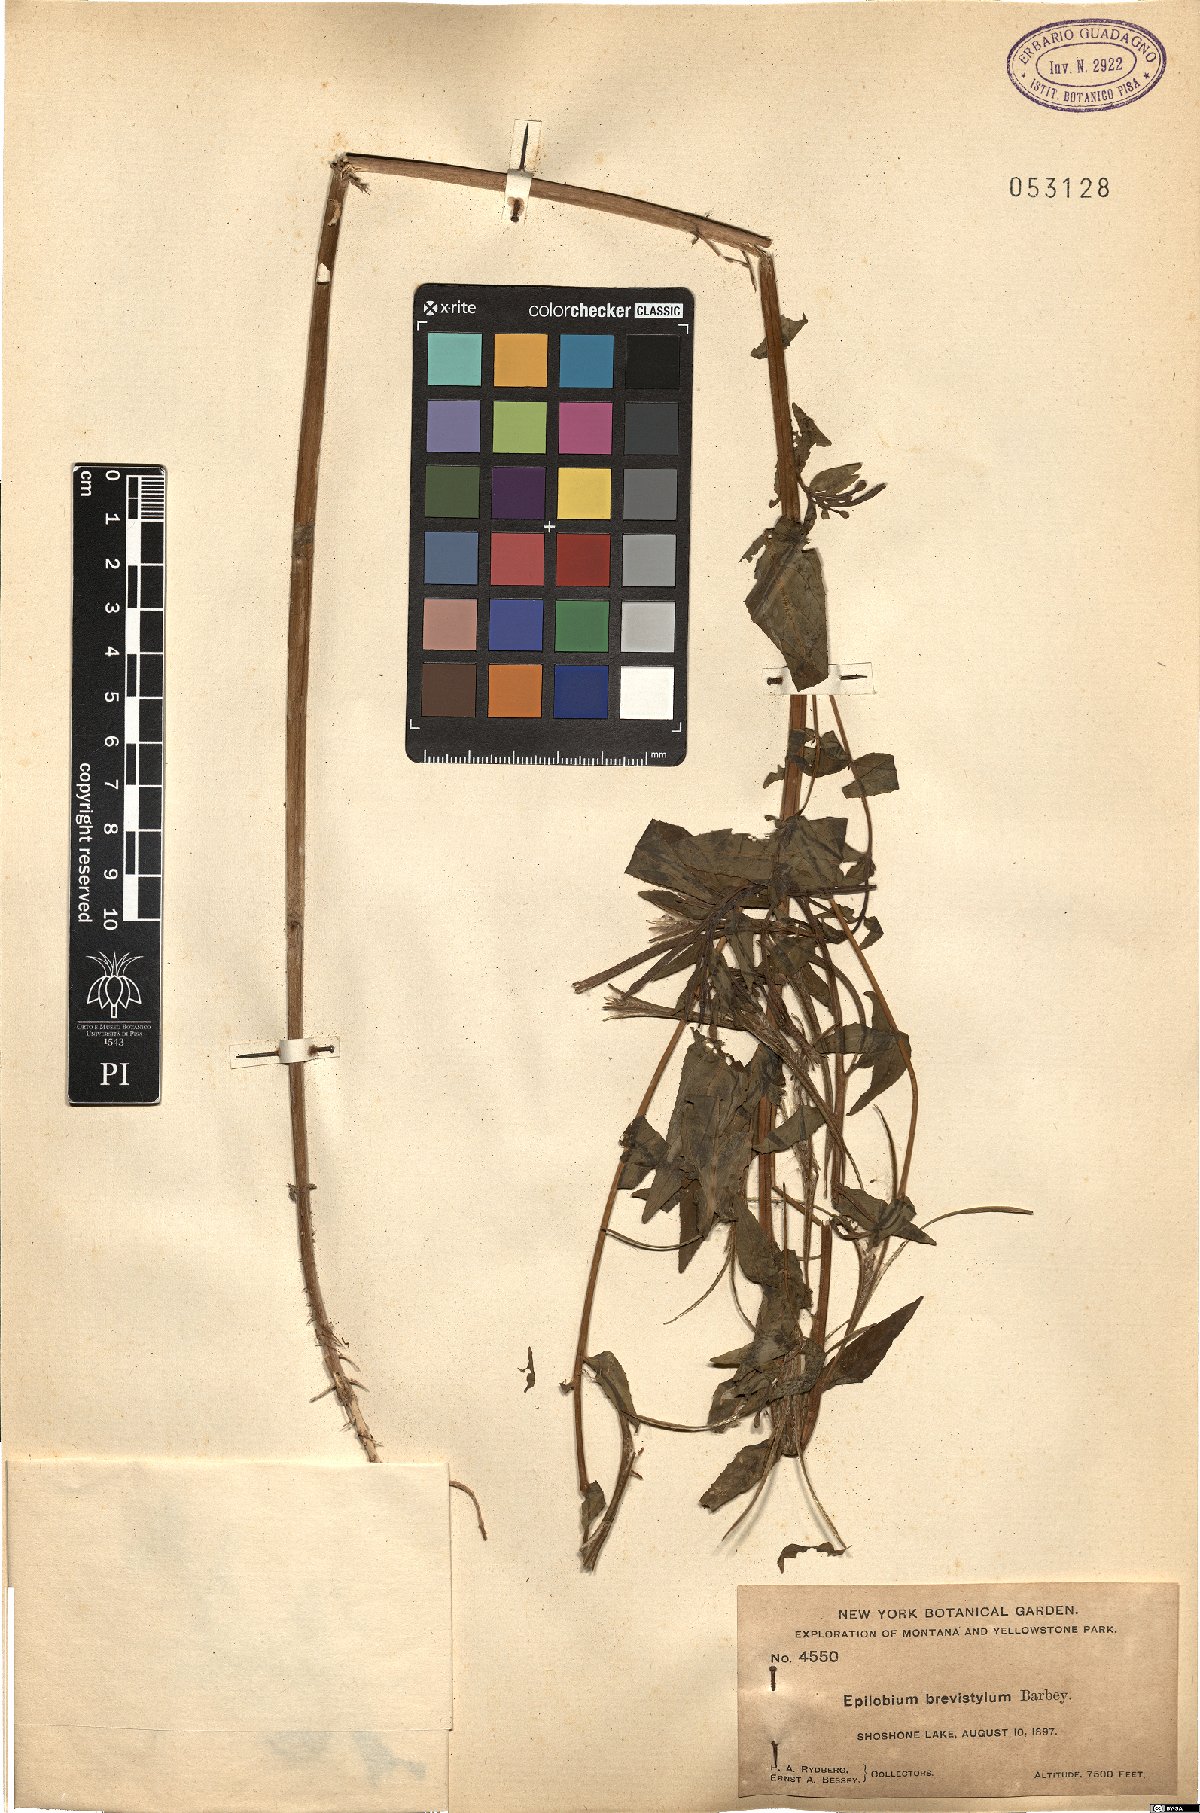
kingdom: Plantae
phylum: Tracheophyta
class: Magnoliopsida
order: Myrtales
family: Onagraceae
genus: Epilobium
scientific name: Epilobium ciliatum
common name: American willowherb
